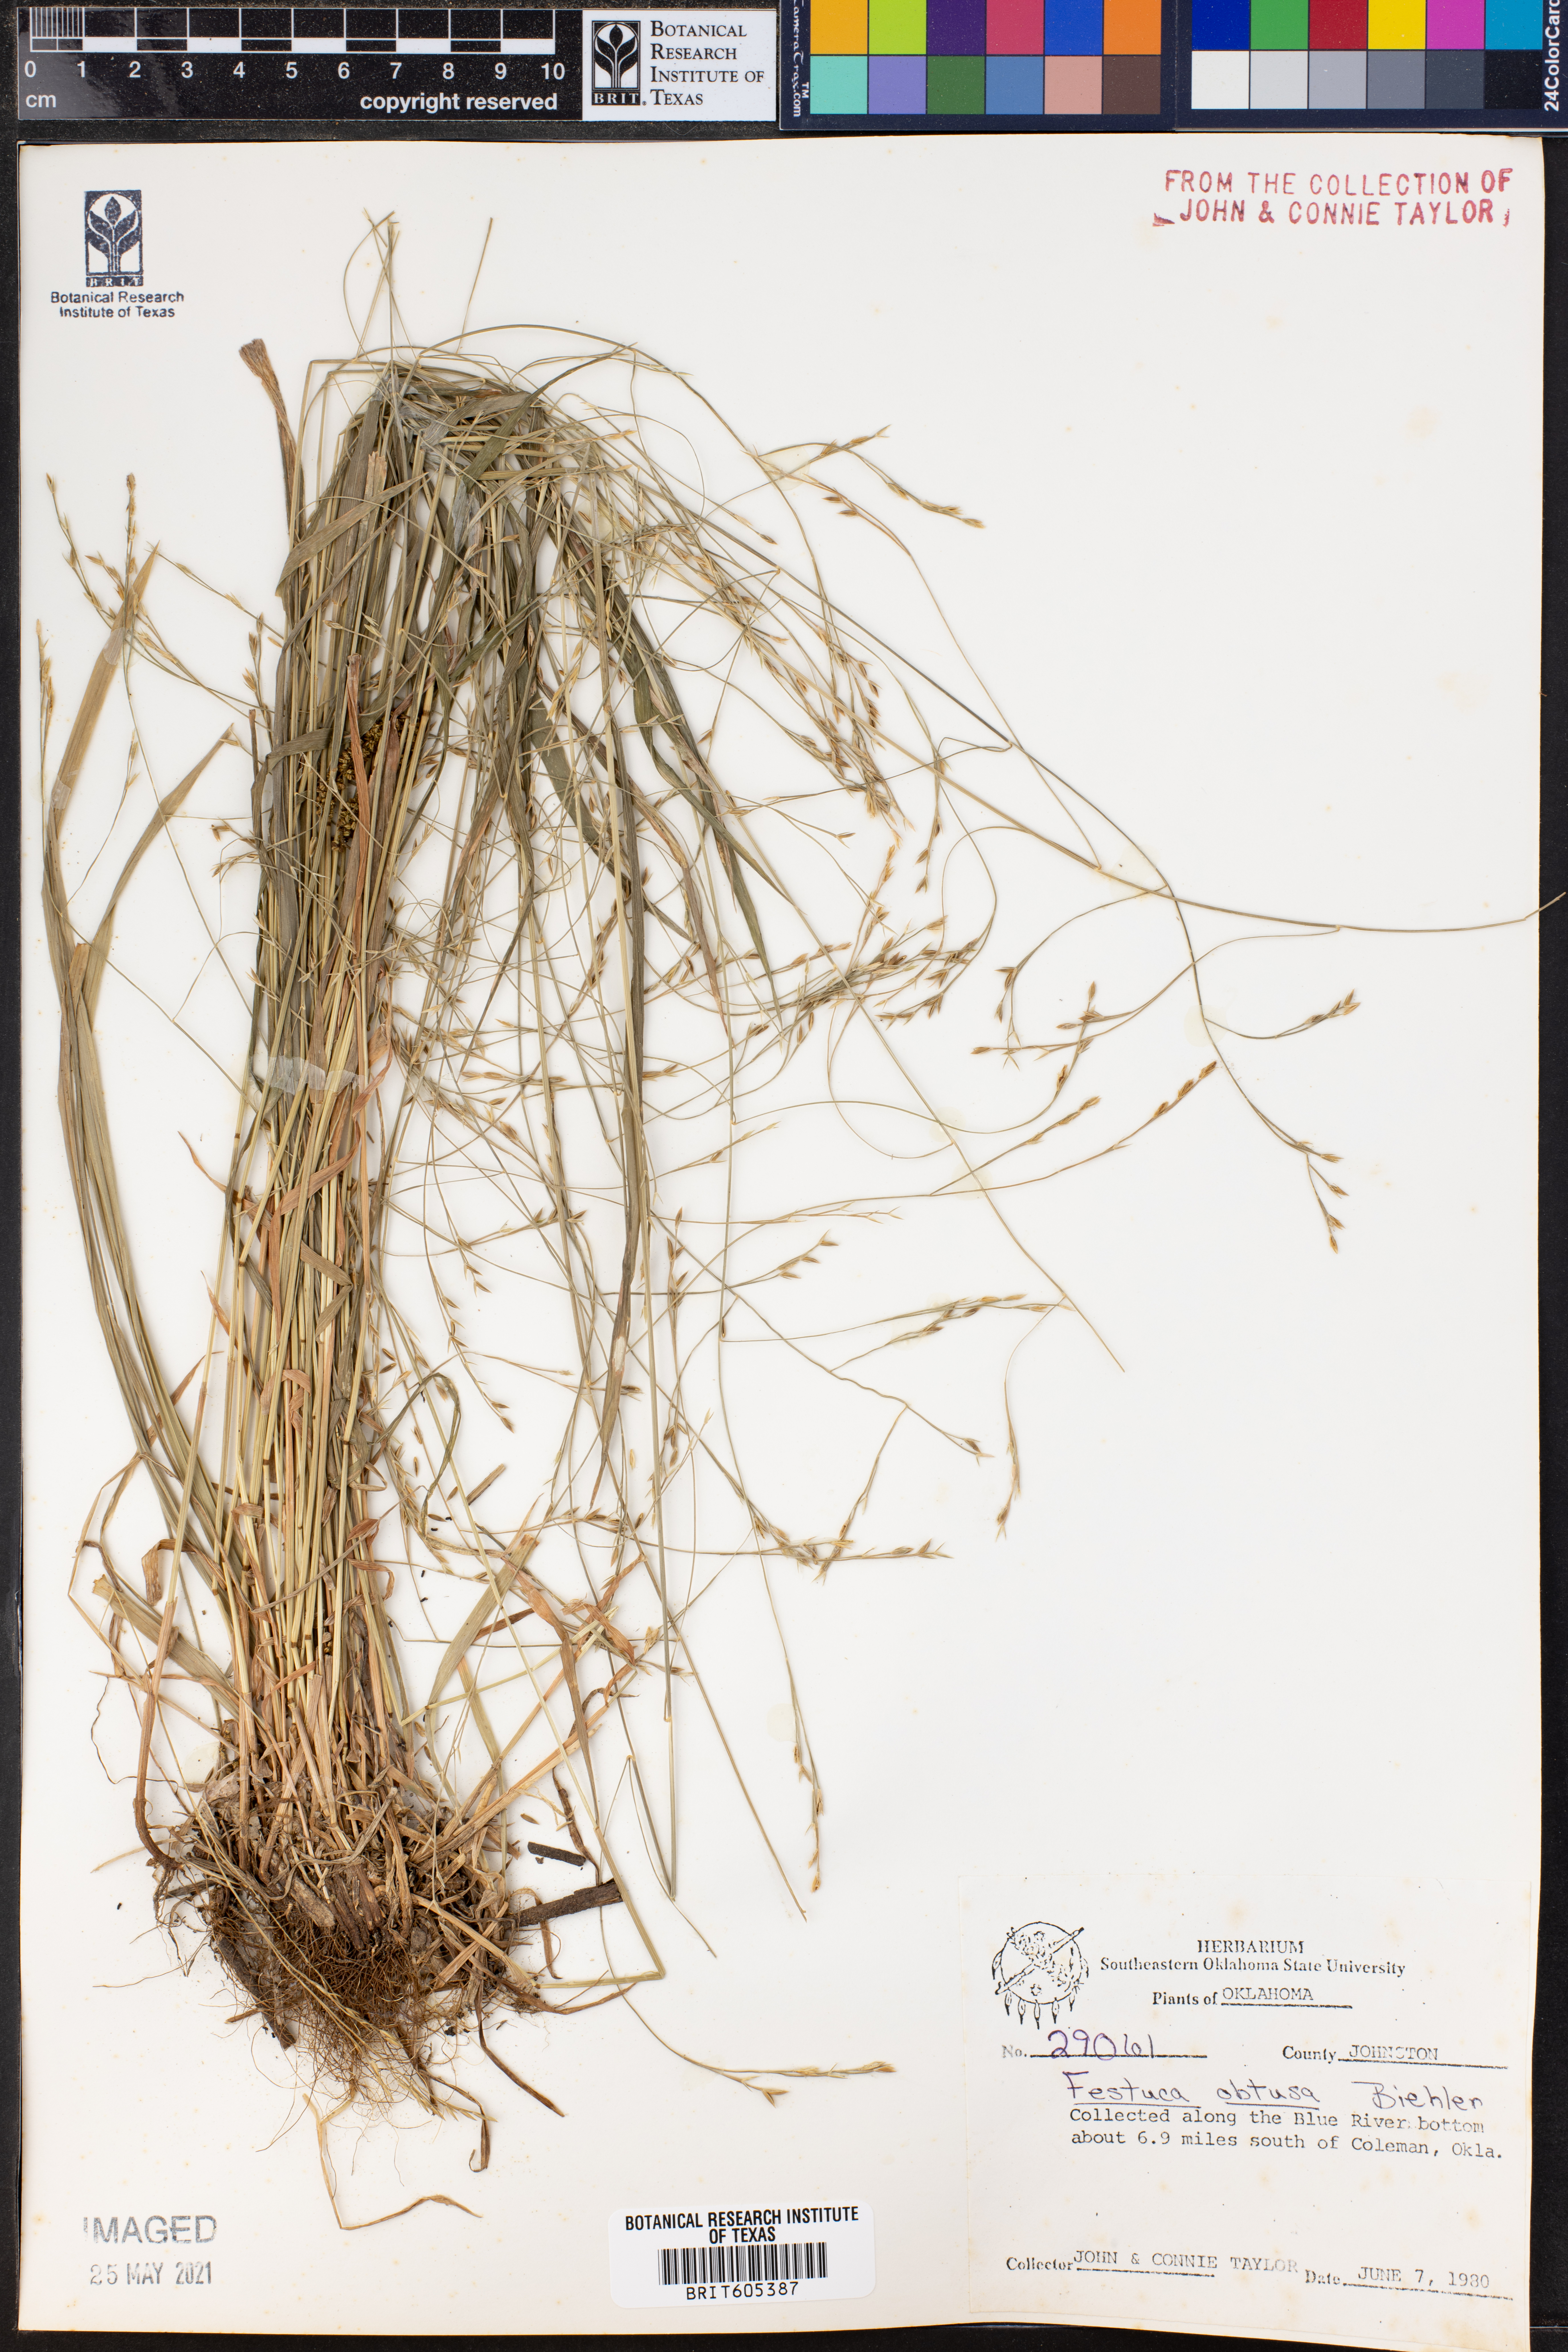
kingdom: Plantae
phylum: Tracheophyta
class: Liliopsida
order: Poales
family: Poaceae
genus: Festuca
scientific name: Festuca subverticillata
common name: Nodding fescue
